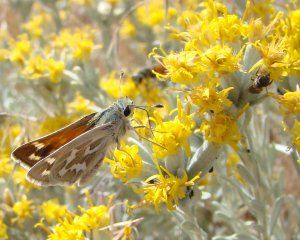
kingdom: Animalia
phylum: Arthropoda
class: Insecta
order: Lepidoptera
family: Hesperiidae
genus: Hesperia
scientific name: Hesperia comma
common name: Common Branded Skipper
